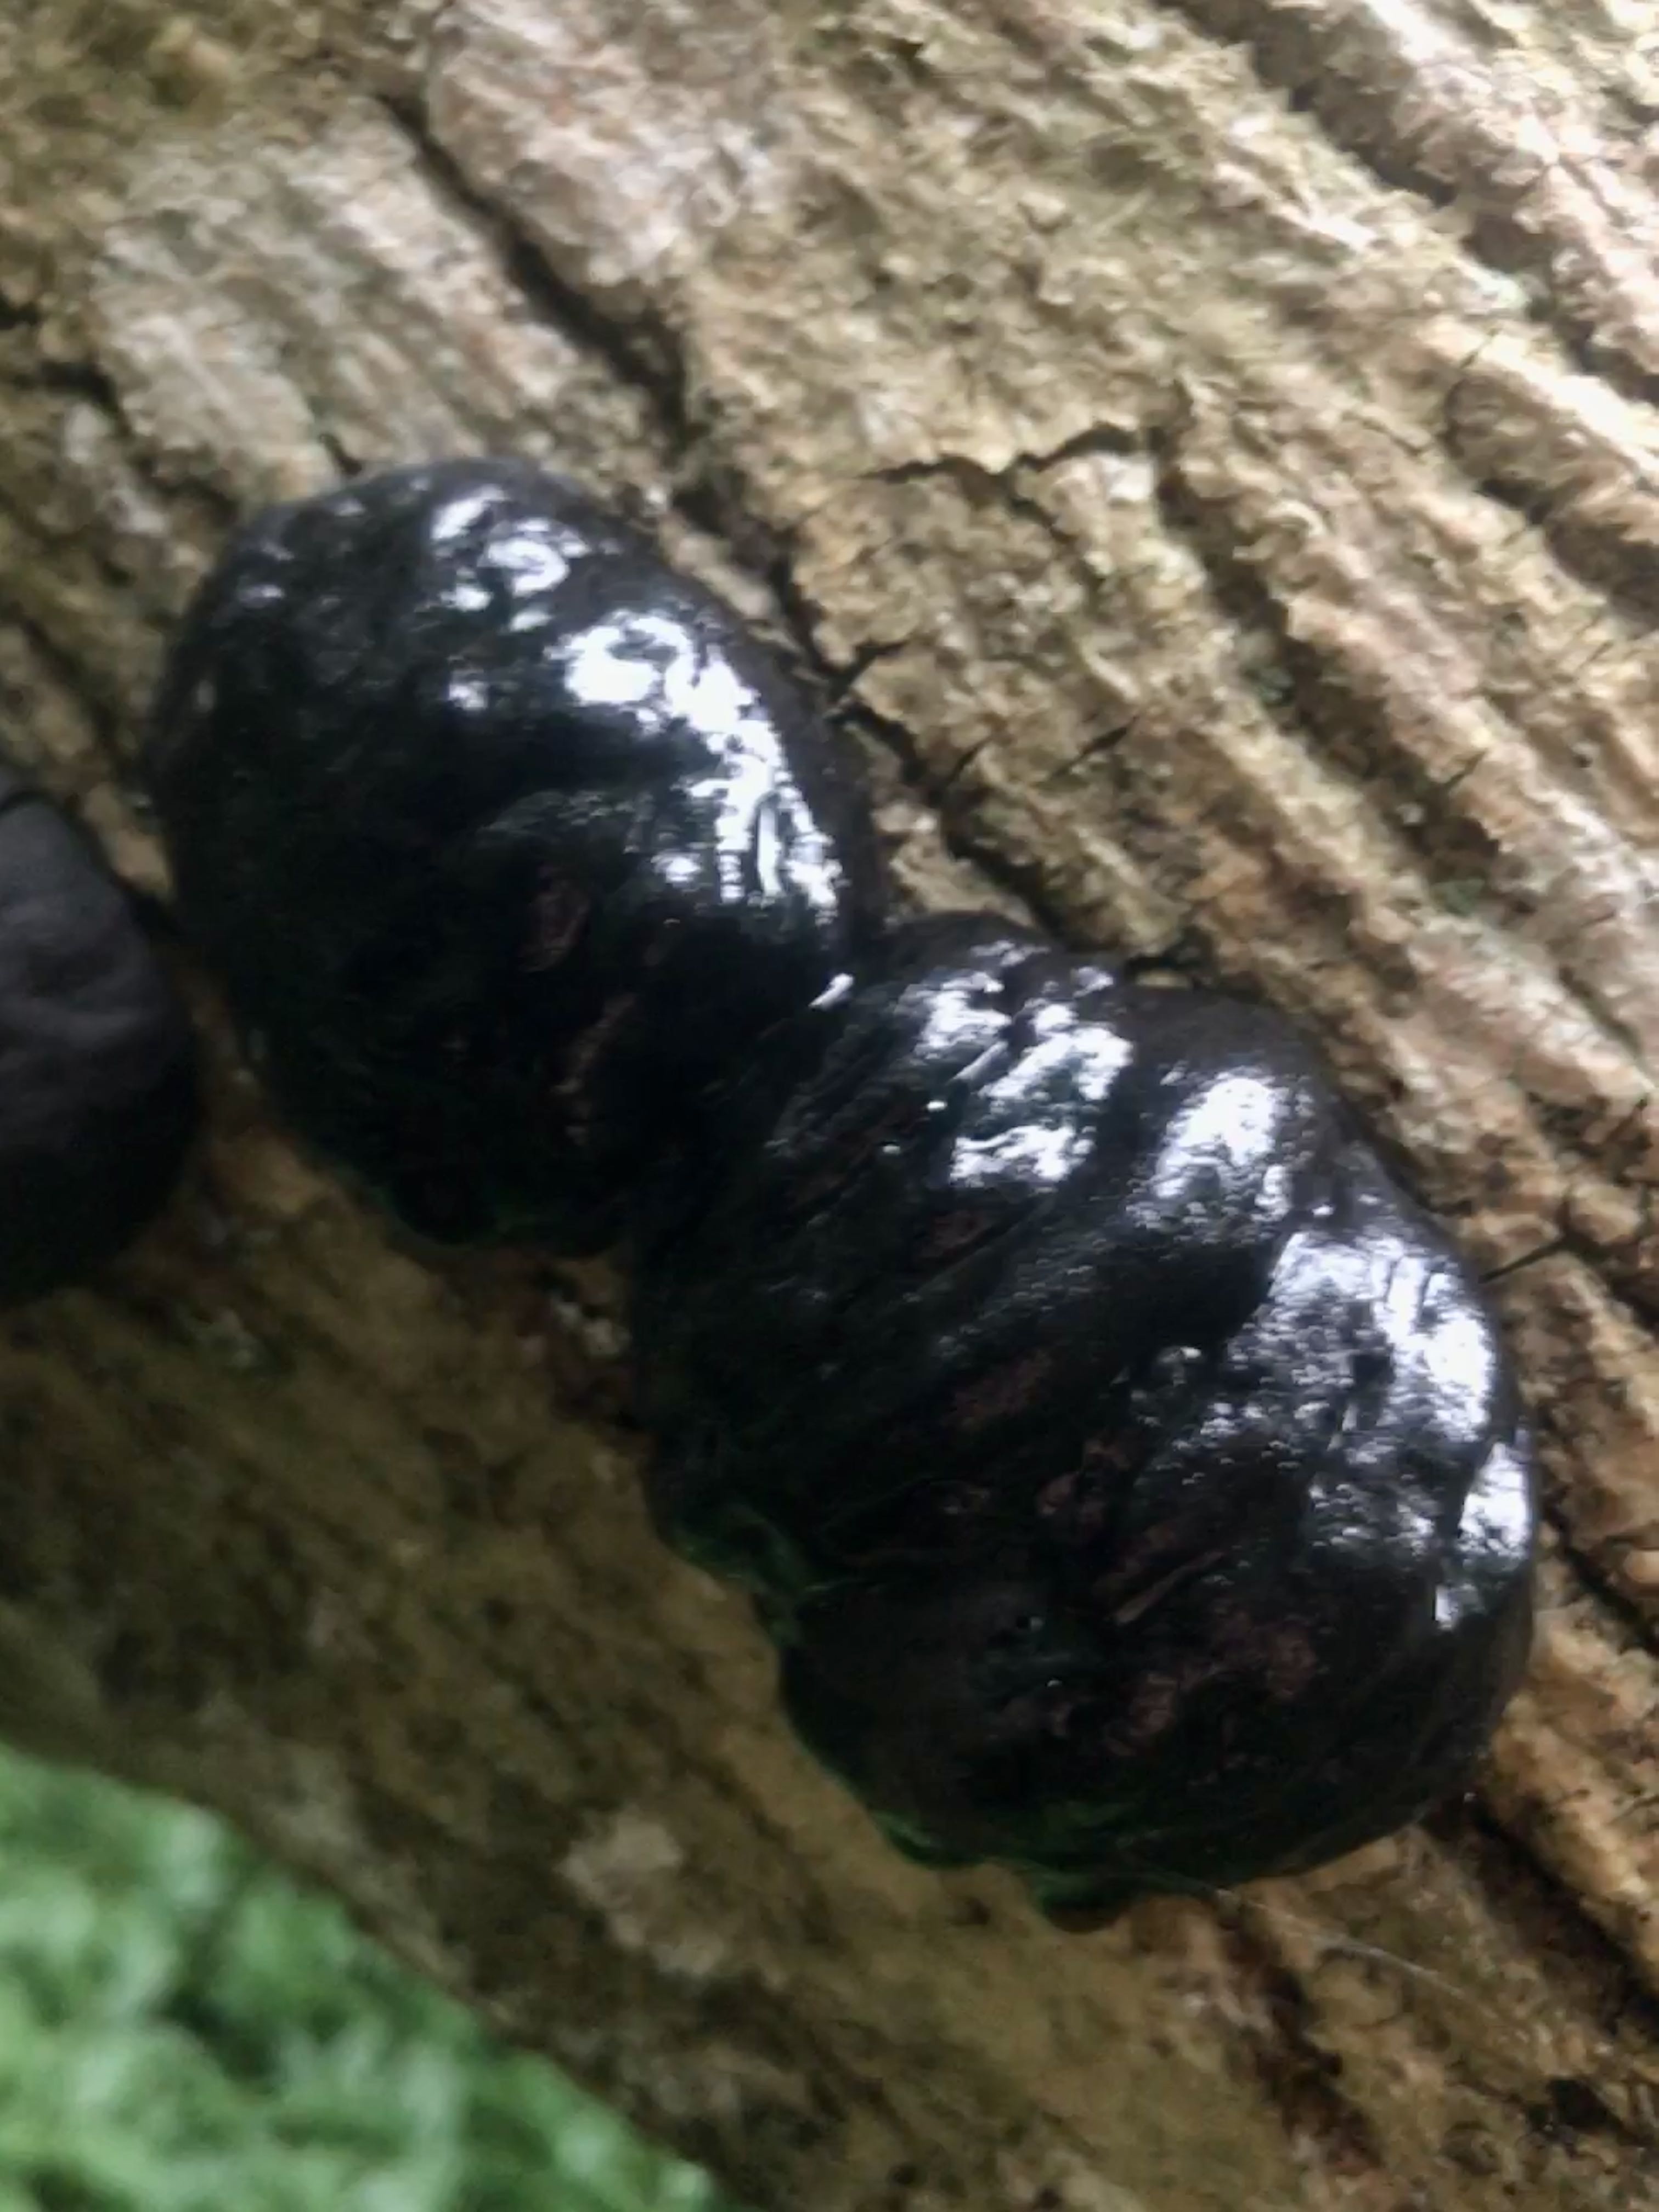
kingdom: Fungi
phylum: Ascomycota
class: Sordariomycetes
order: Xylariales
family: Hypoxylaceae
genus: Daldinia
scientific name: Daldinia concentrica
